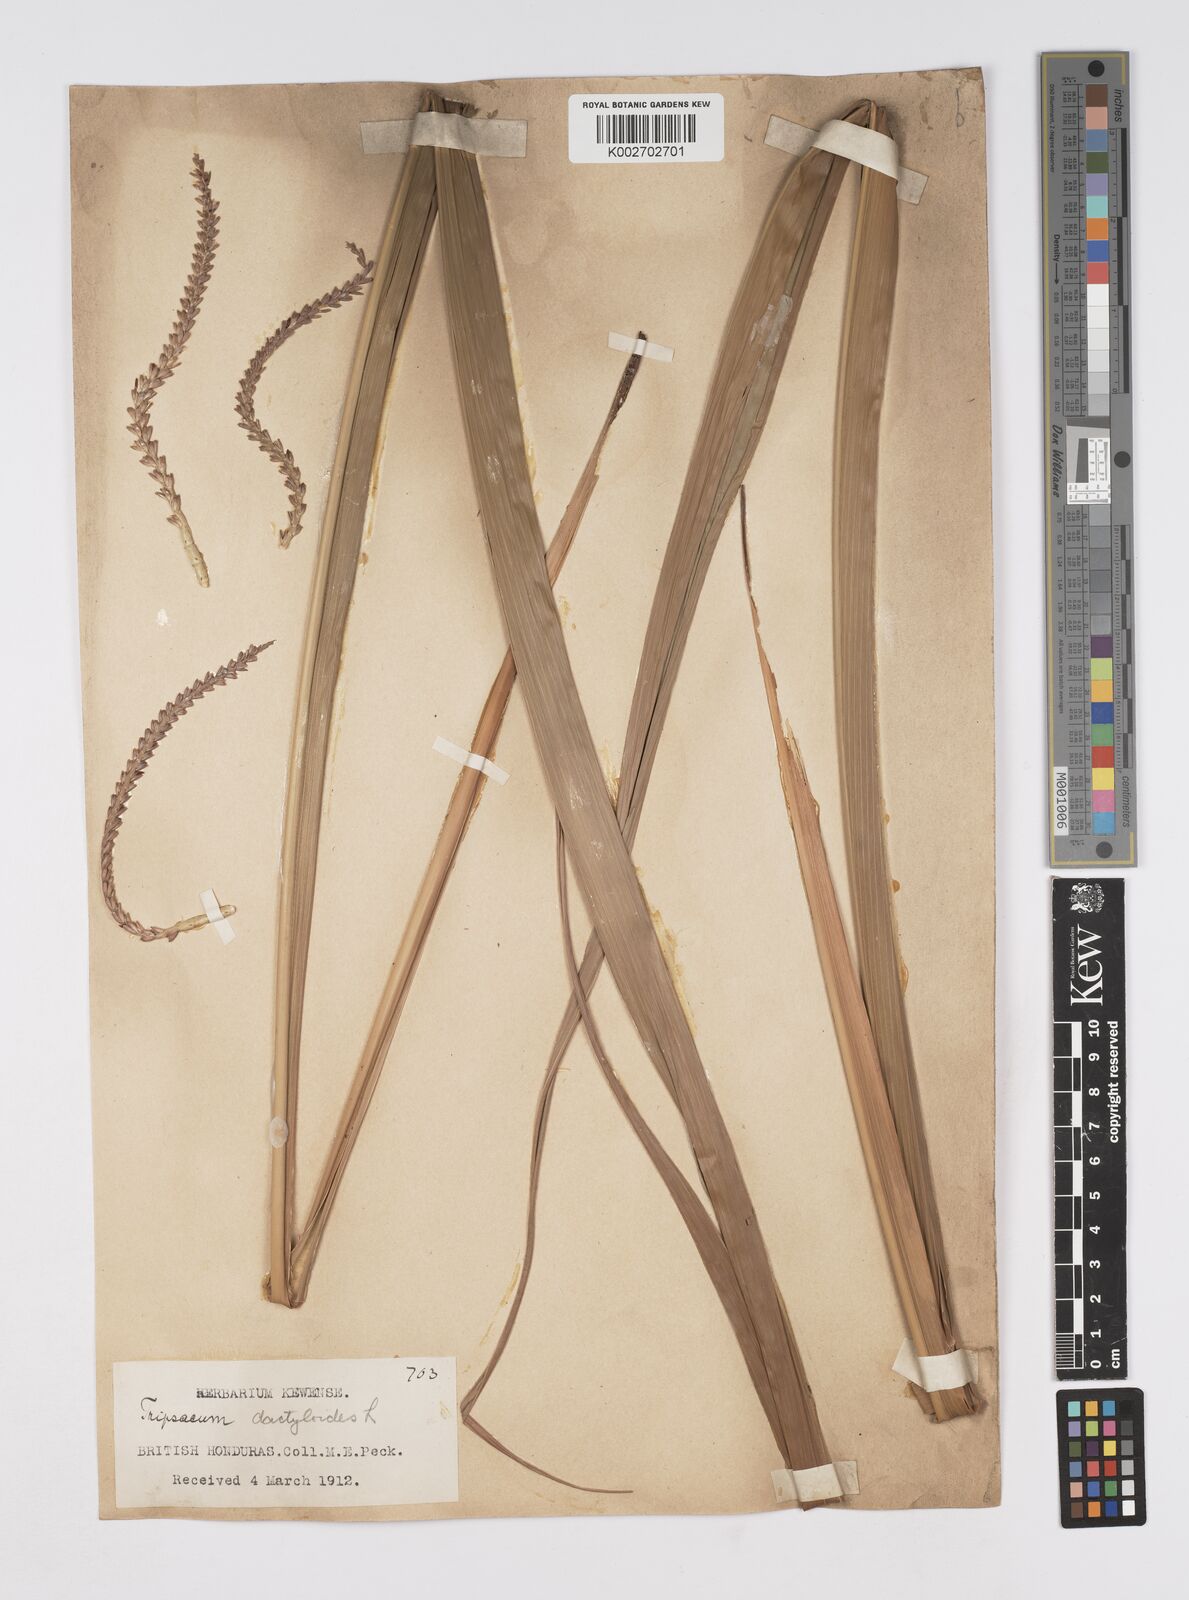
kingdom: Plantae
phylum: Tracheophyta
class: Liliopsida
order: Poales
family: Poaceae
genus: Tripsacum
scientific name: Tripsacum latifolium
